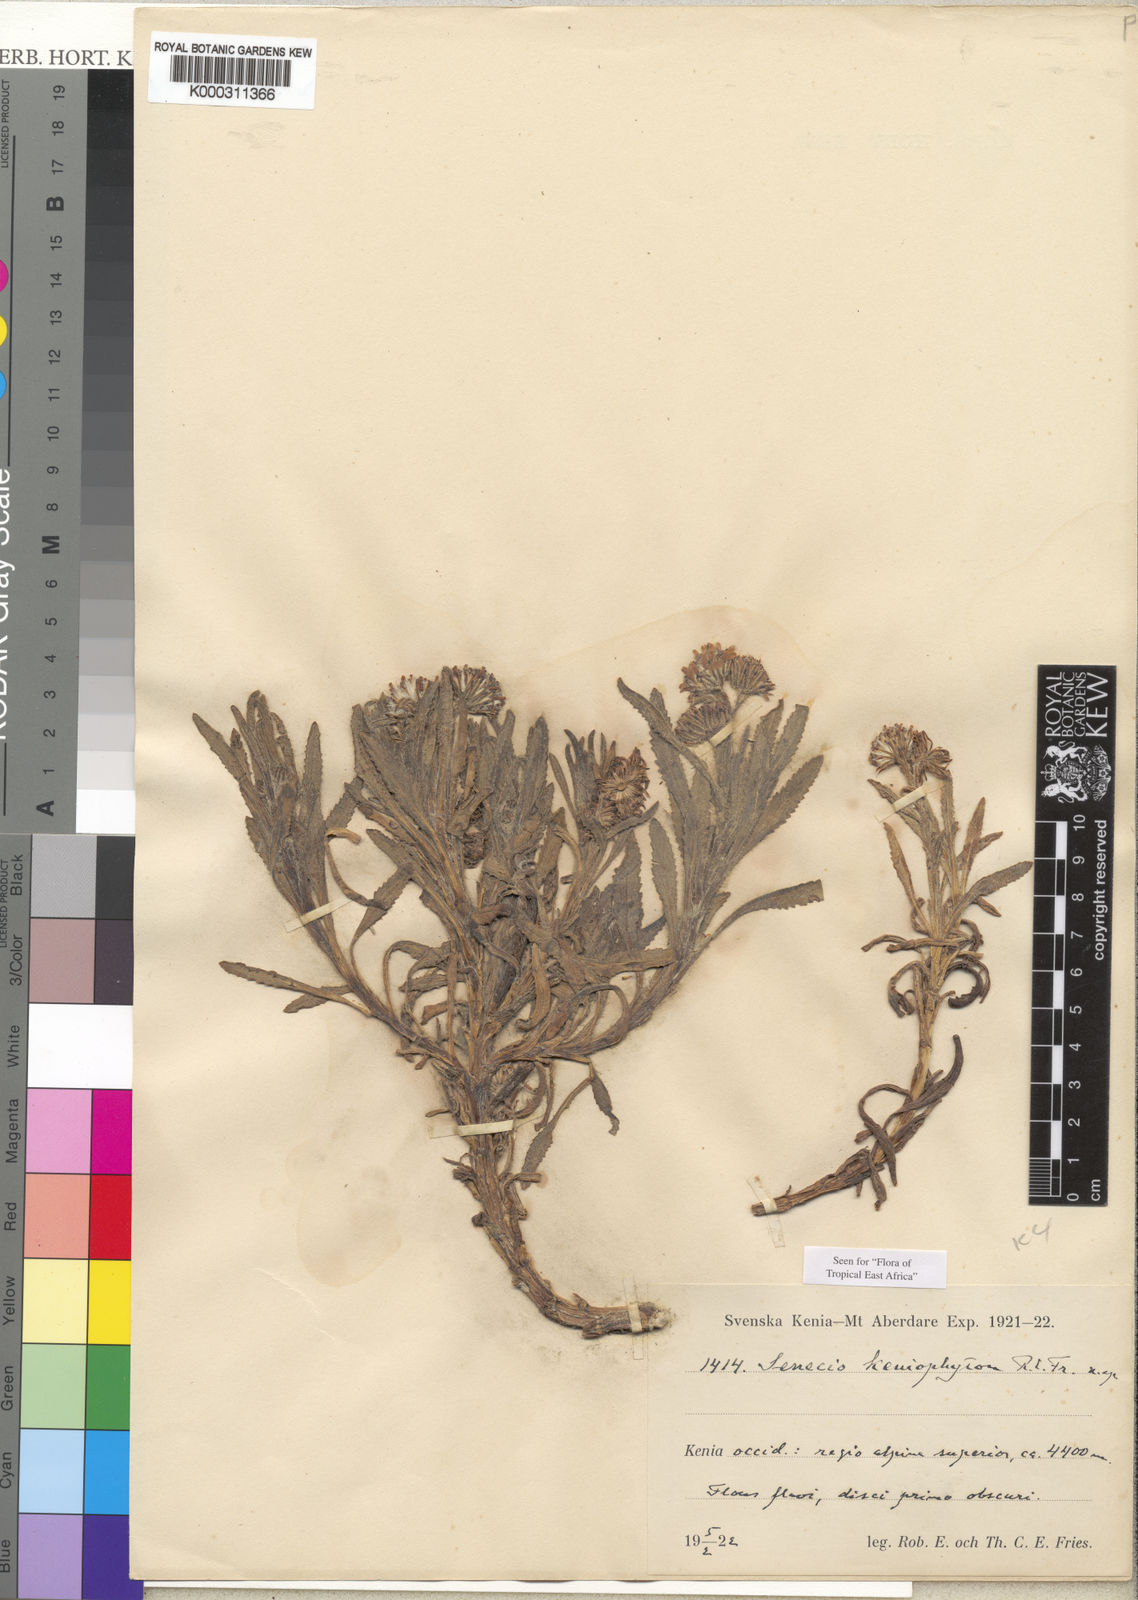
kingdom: Plantae
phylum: Tracheophyta
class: Magnoliopsida
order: Asterales
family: Asteraceae
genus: Senecio
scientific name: Senecio keniophytum
